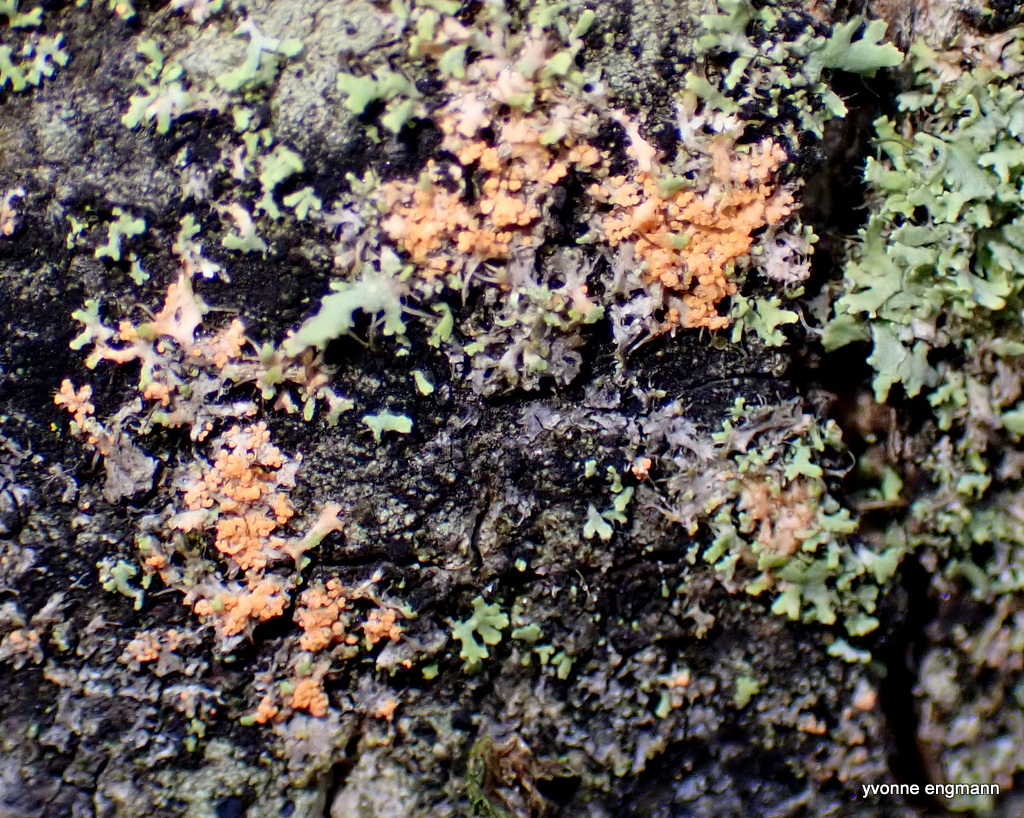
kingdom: Fungi
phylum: Basidiomycota
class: Agaricomycetes
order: Corticiales
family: Corticiaceae
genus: Erythricium
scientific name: Erythricium aurantiacum
